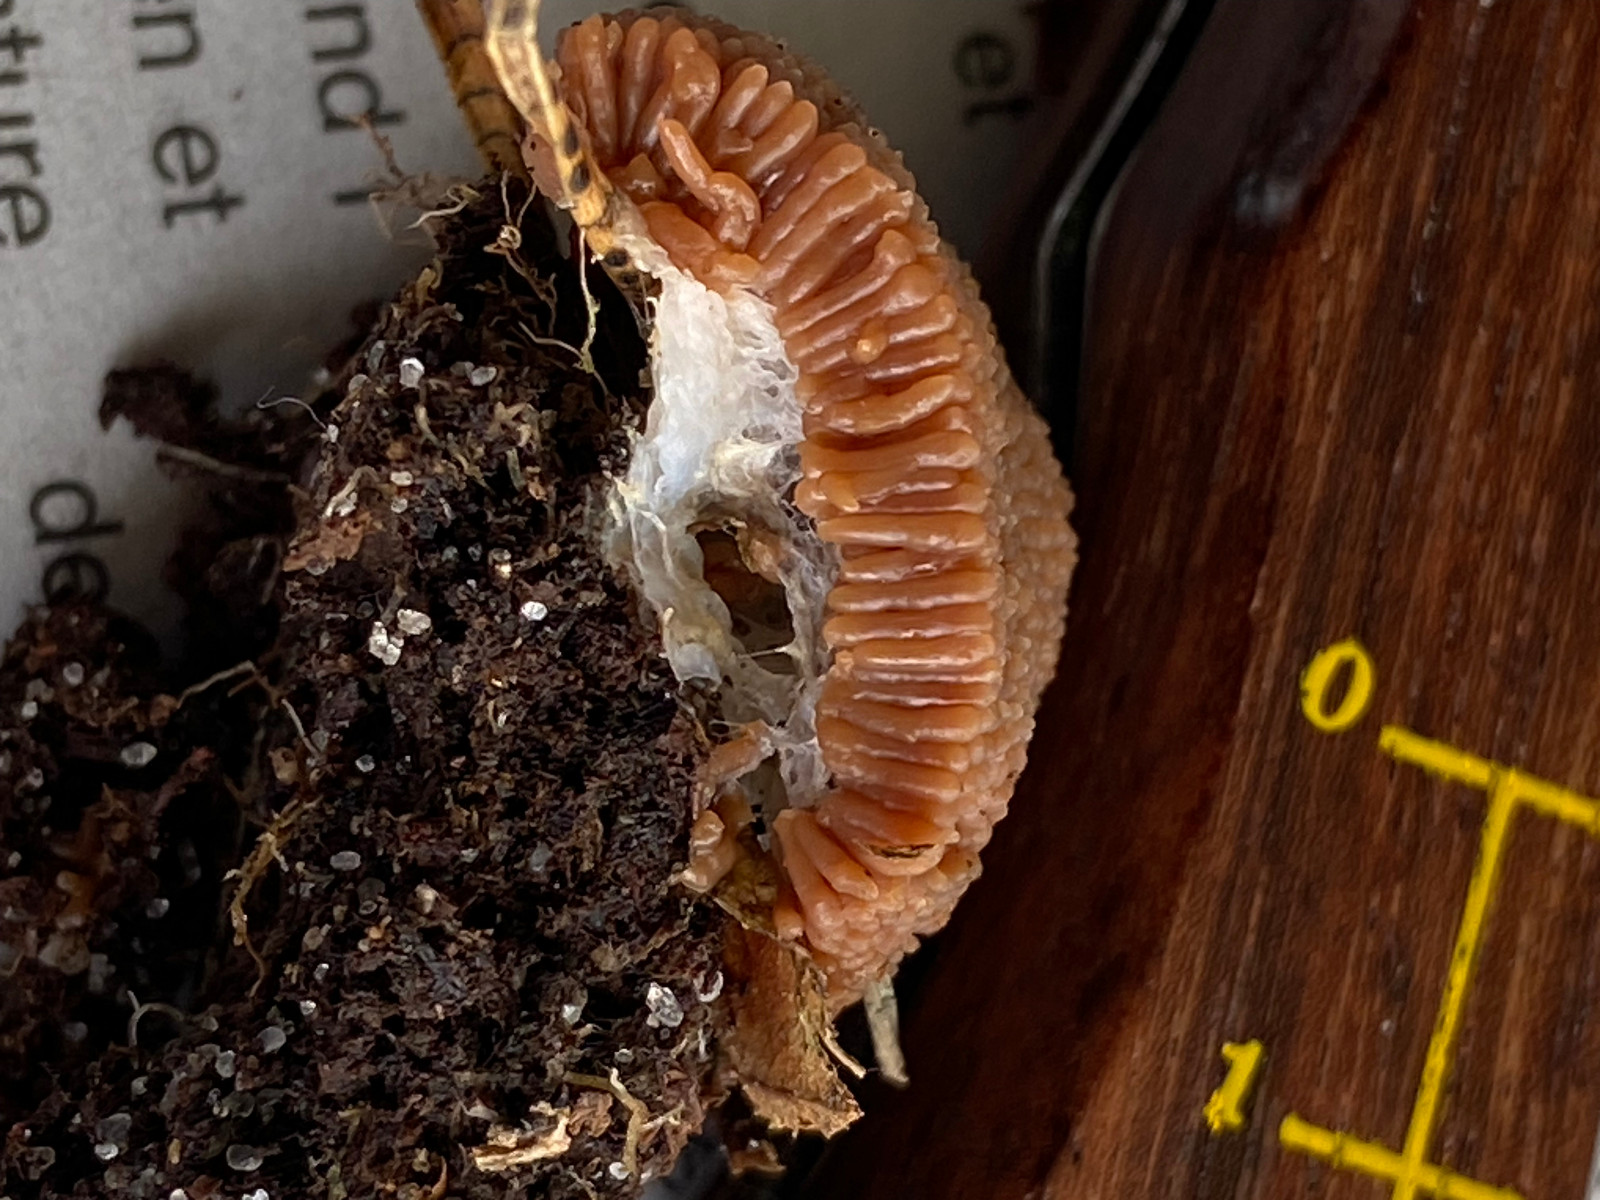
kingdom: Protozoa
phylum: Mycetozoa
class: Myxomycetes
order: Cribrariales
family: Tubiferaceae
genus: Tubifera
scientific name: Tubifera ferruginosa
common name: kanel-støvrør
